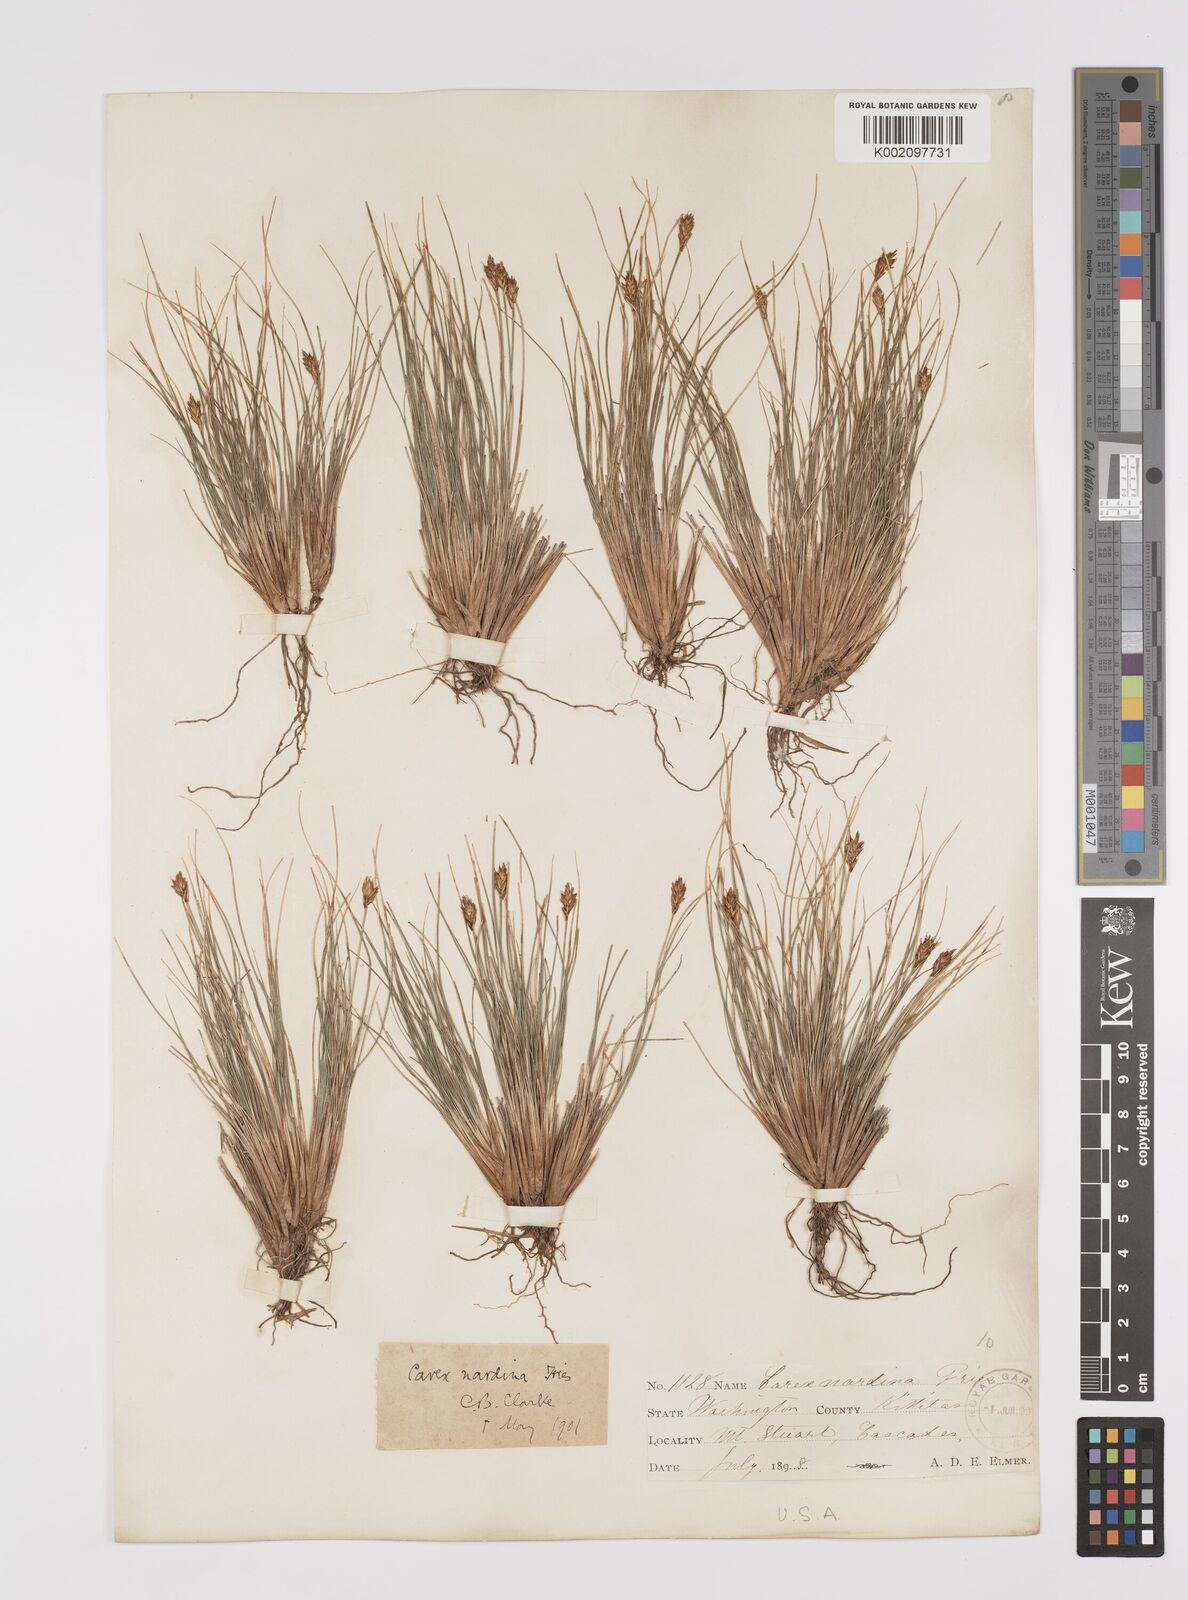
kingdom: Plantae
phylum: Tracheophyta
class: Liliopsida
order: Poales
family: Cyperaceae
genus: Carex
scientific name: Carex nardina
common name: Nard sedge
